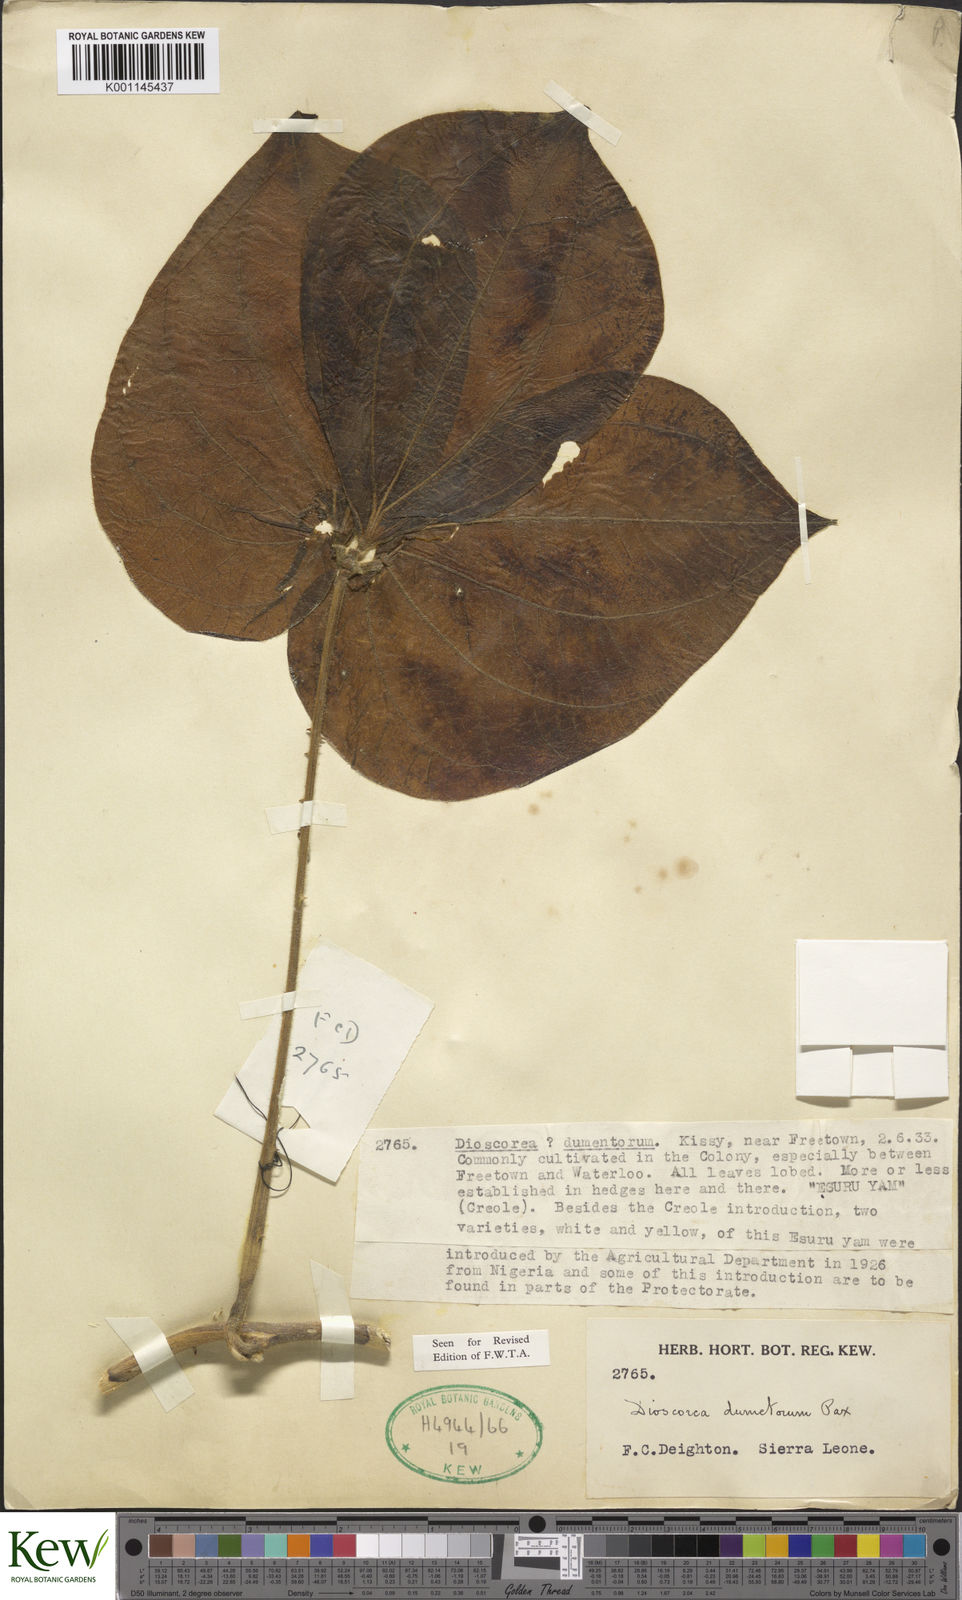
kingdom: Plantae
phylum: Tracheophyta
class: Liliopsida
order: Dioscoreales
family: Dioscoreaceae
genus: Dioscorea
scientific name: Dioscorea dumetorum
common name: African bitter yam
